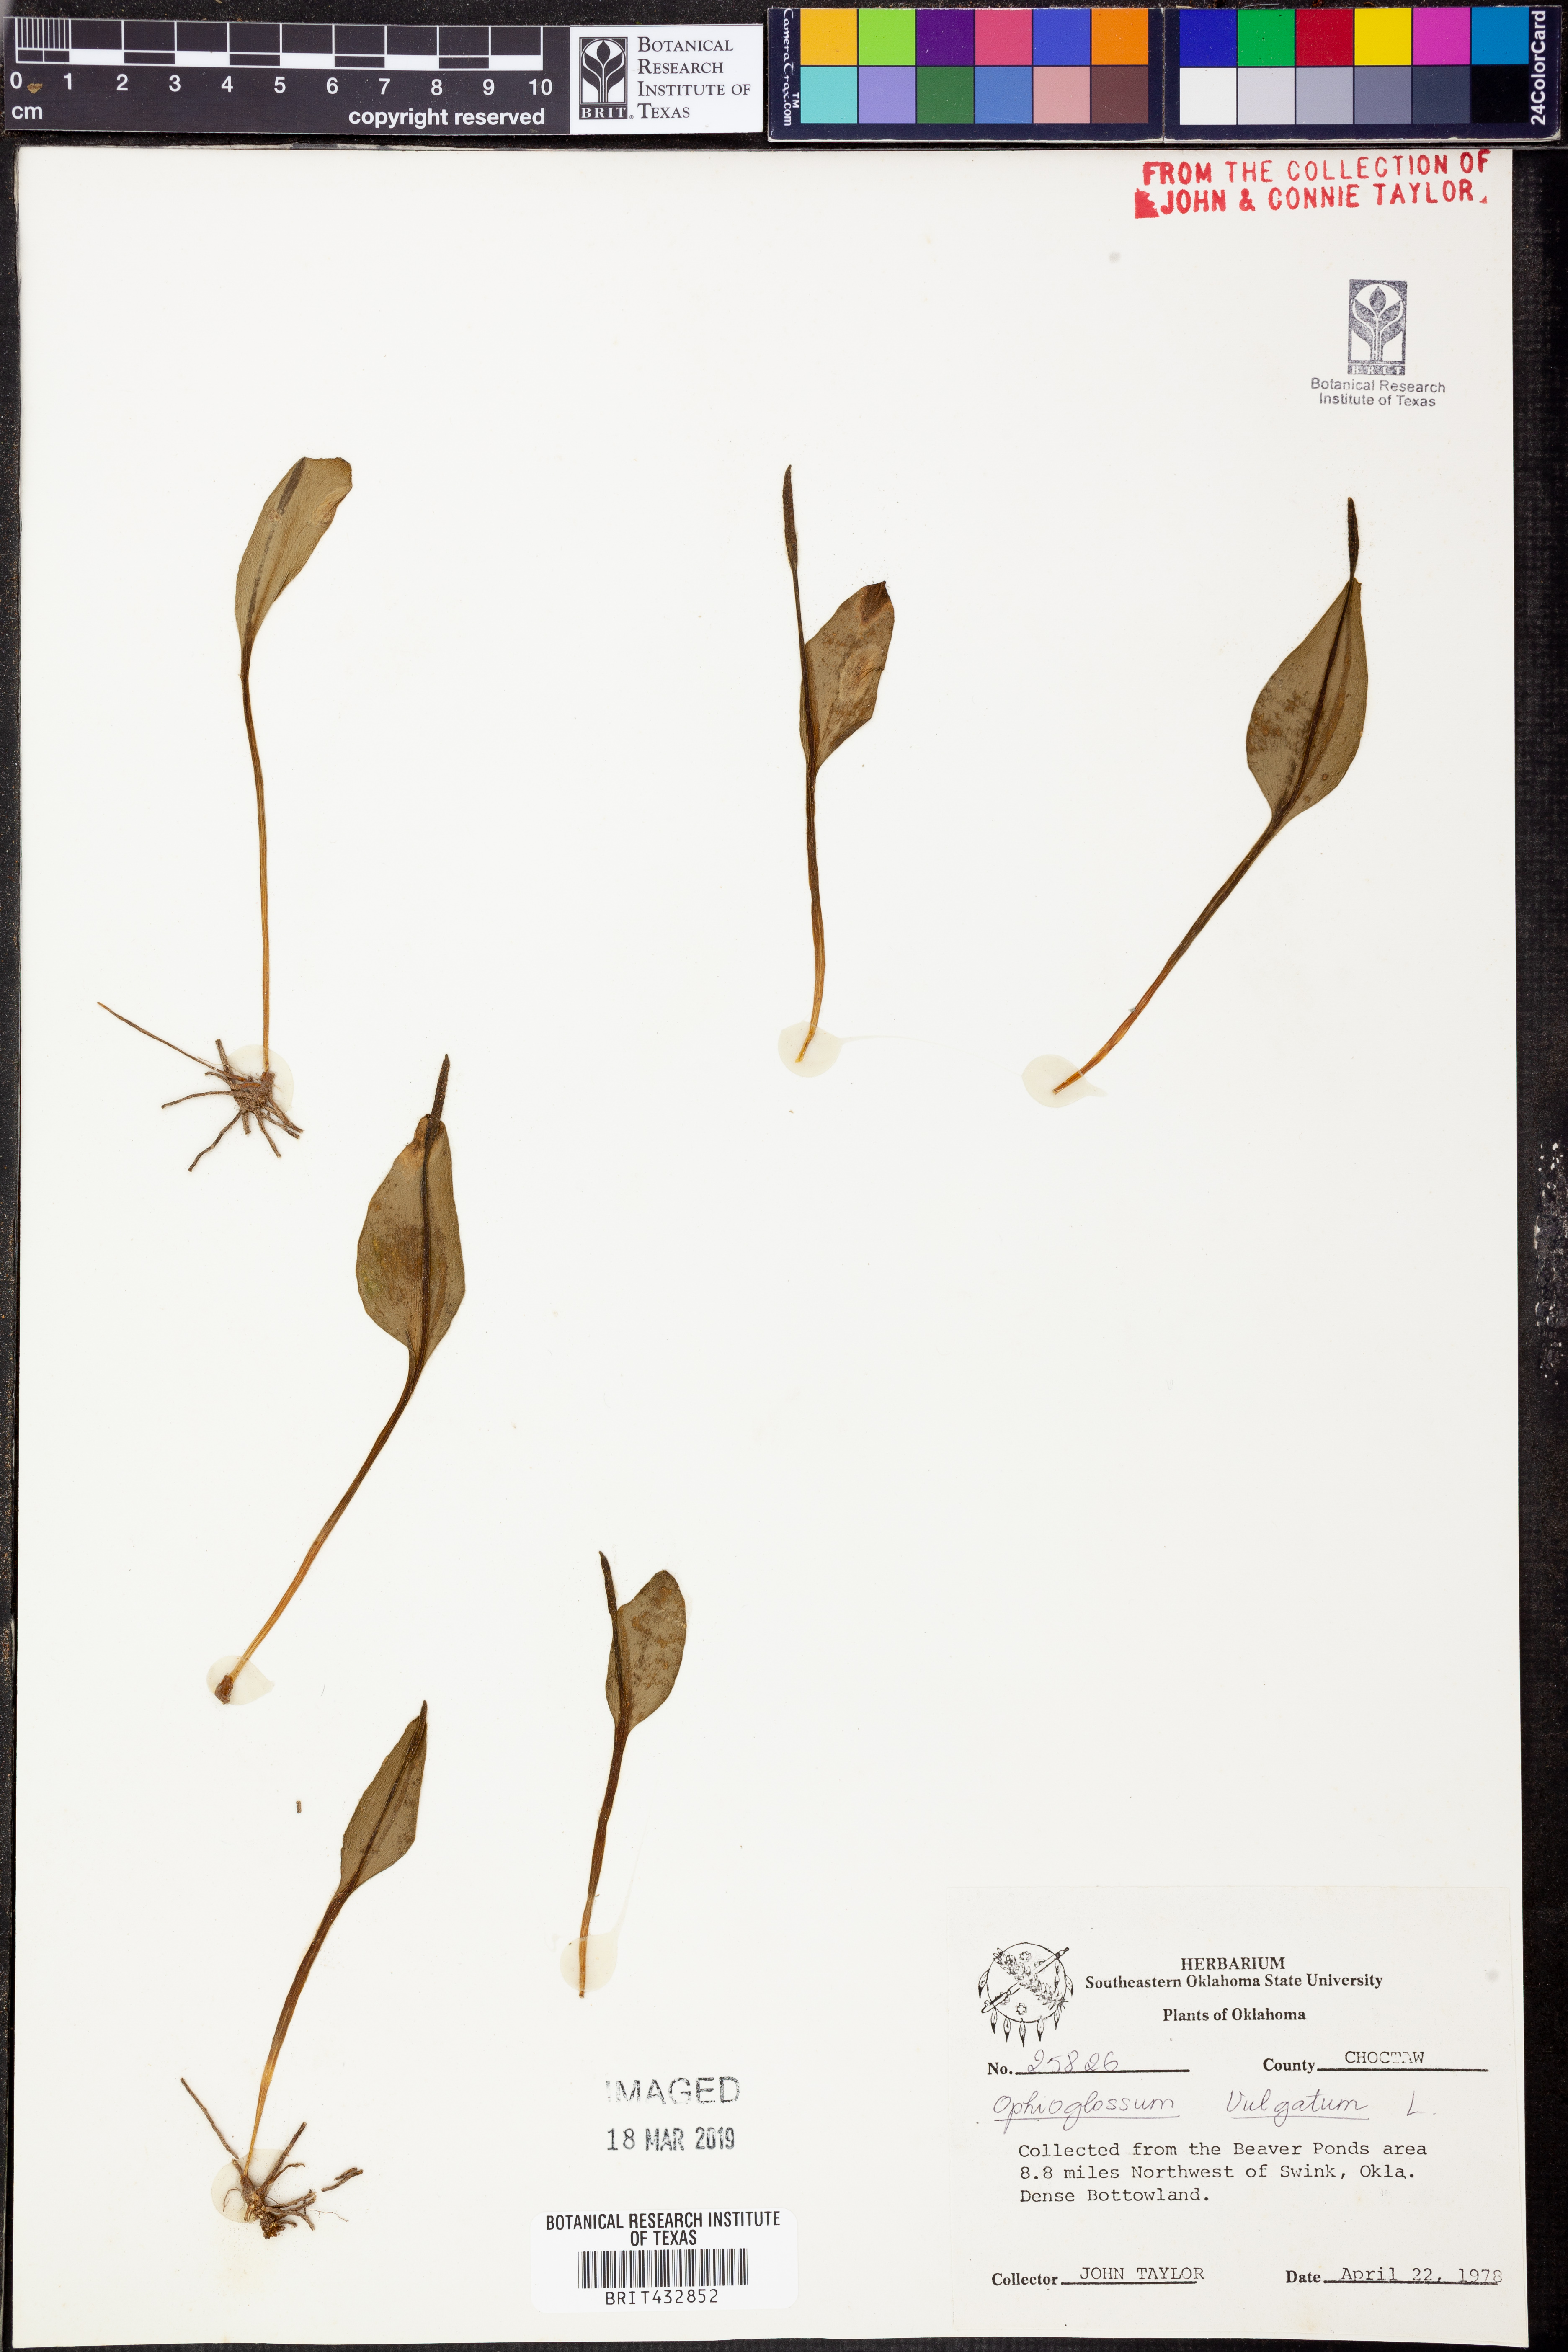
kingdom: Plantae
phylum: Tracheophyta
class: Polypodiopsida
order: Ophioglossales
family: Ophioglossaceae
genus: Ophioglossum
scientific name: Ophioglossum vulgatum
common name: Adder's-tongue
